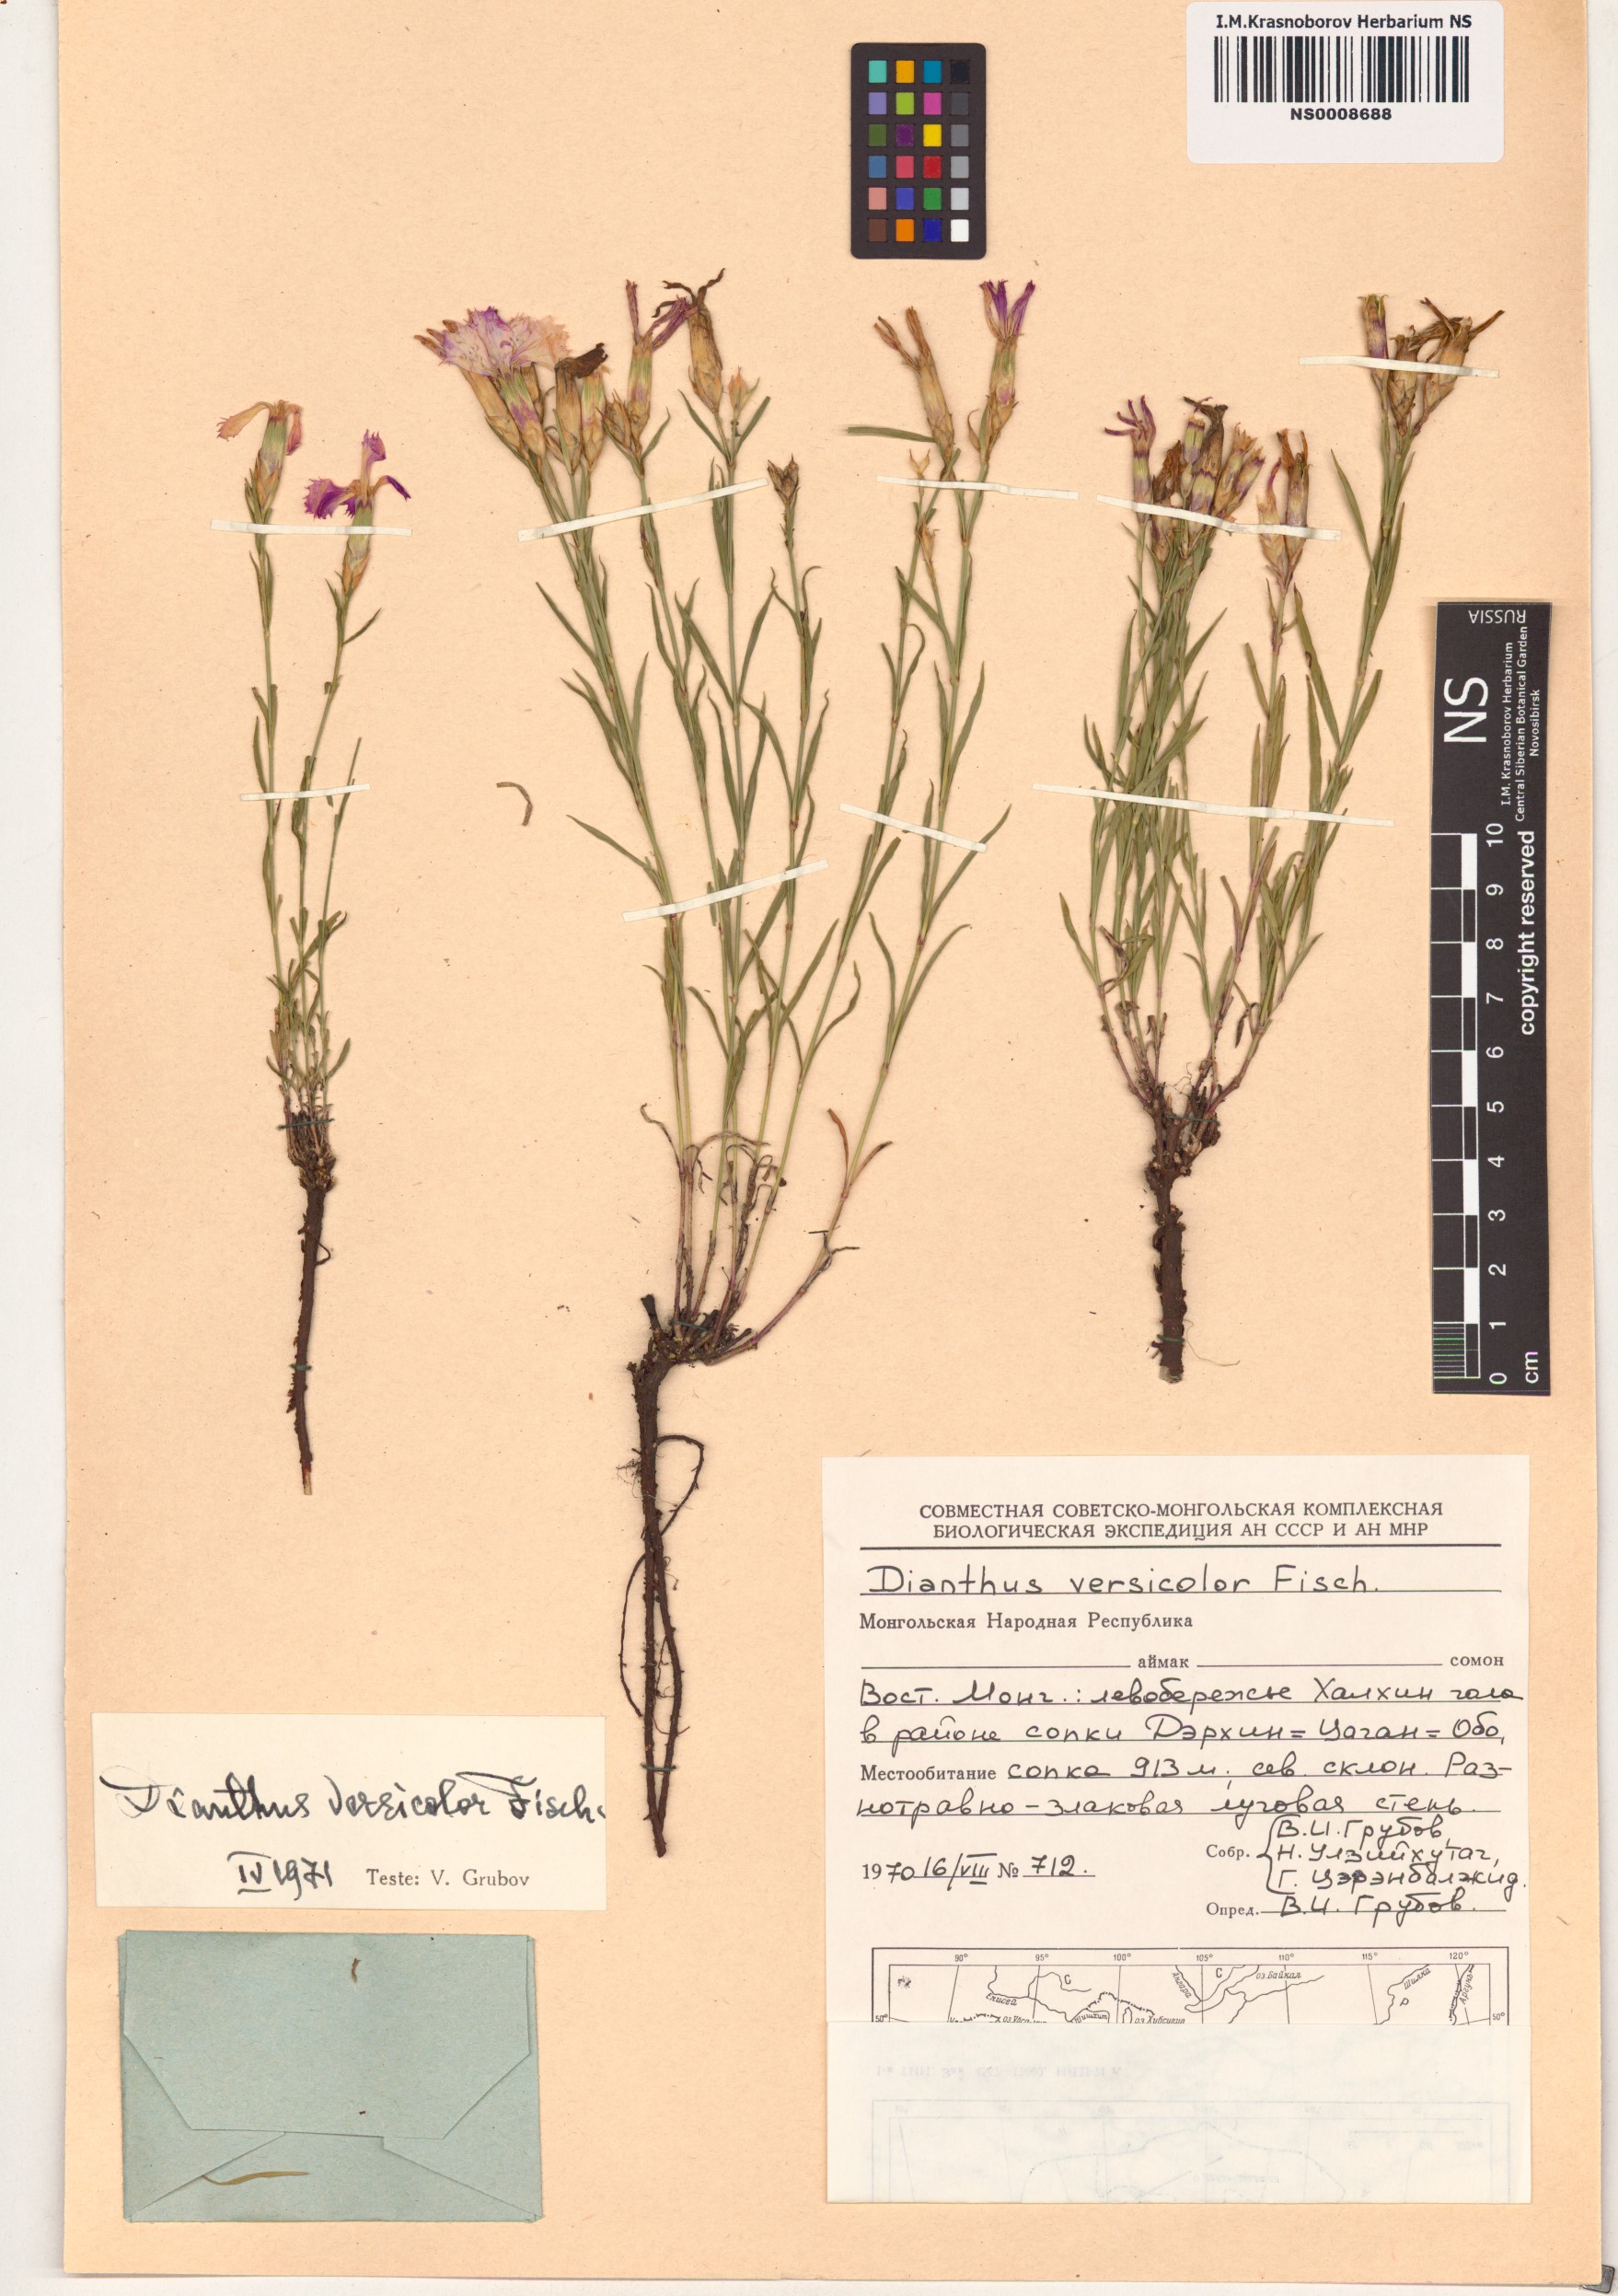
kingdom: Plantae
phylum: Tracheophyta
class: Magnoliopsida
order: Caryophyllales
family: Caryophyllaceae
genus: Dianthus
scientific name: Dianthus chinensis
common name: Rainbow pink
